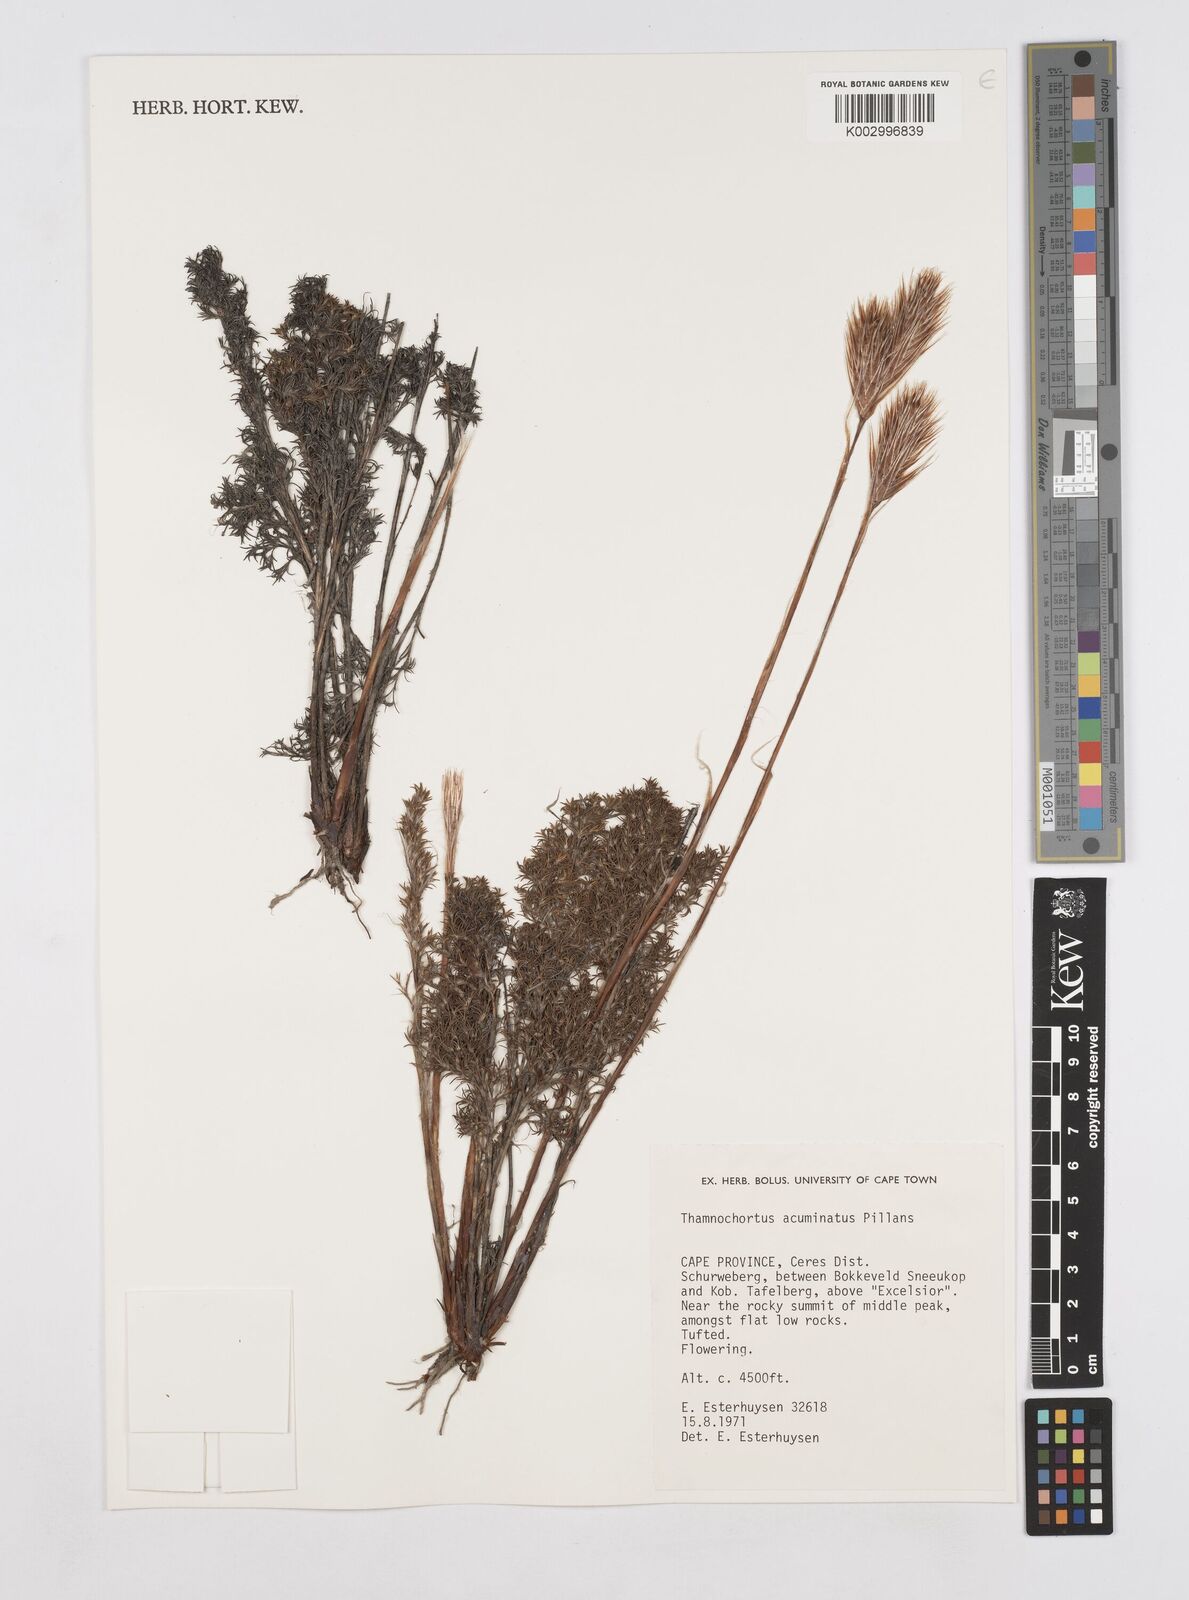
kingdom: Plantae
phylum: Tracheophyta
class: Liliopsida
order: Poales
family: Restionaceae
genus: Thamnochortus
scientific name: Thamnochortus acuminatus
